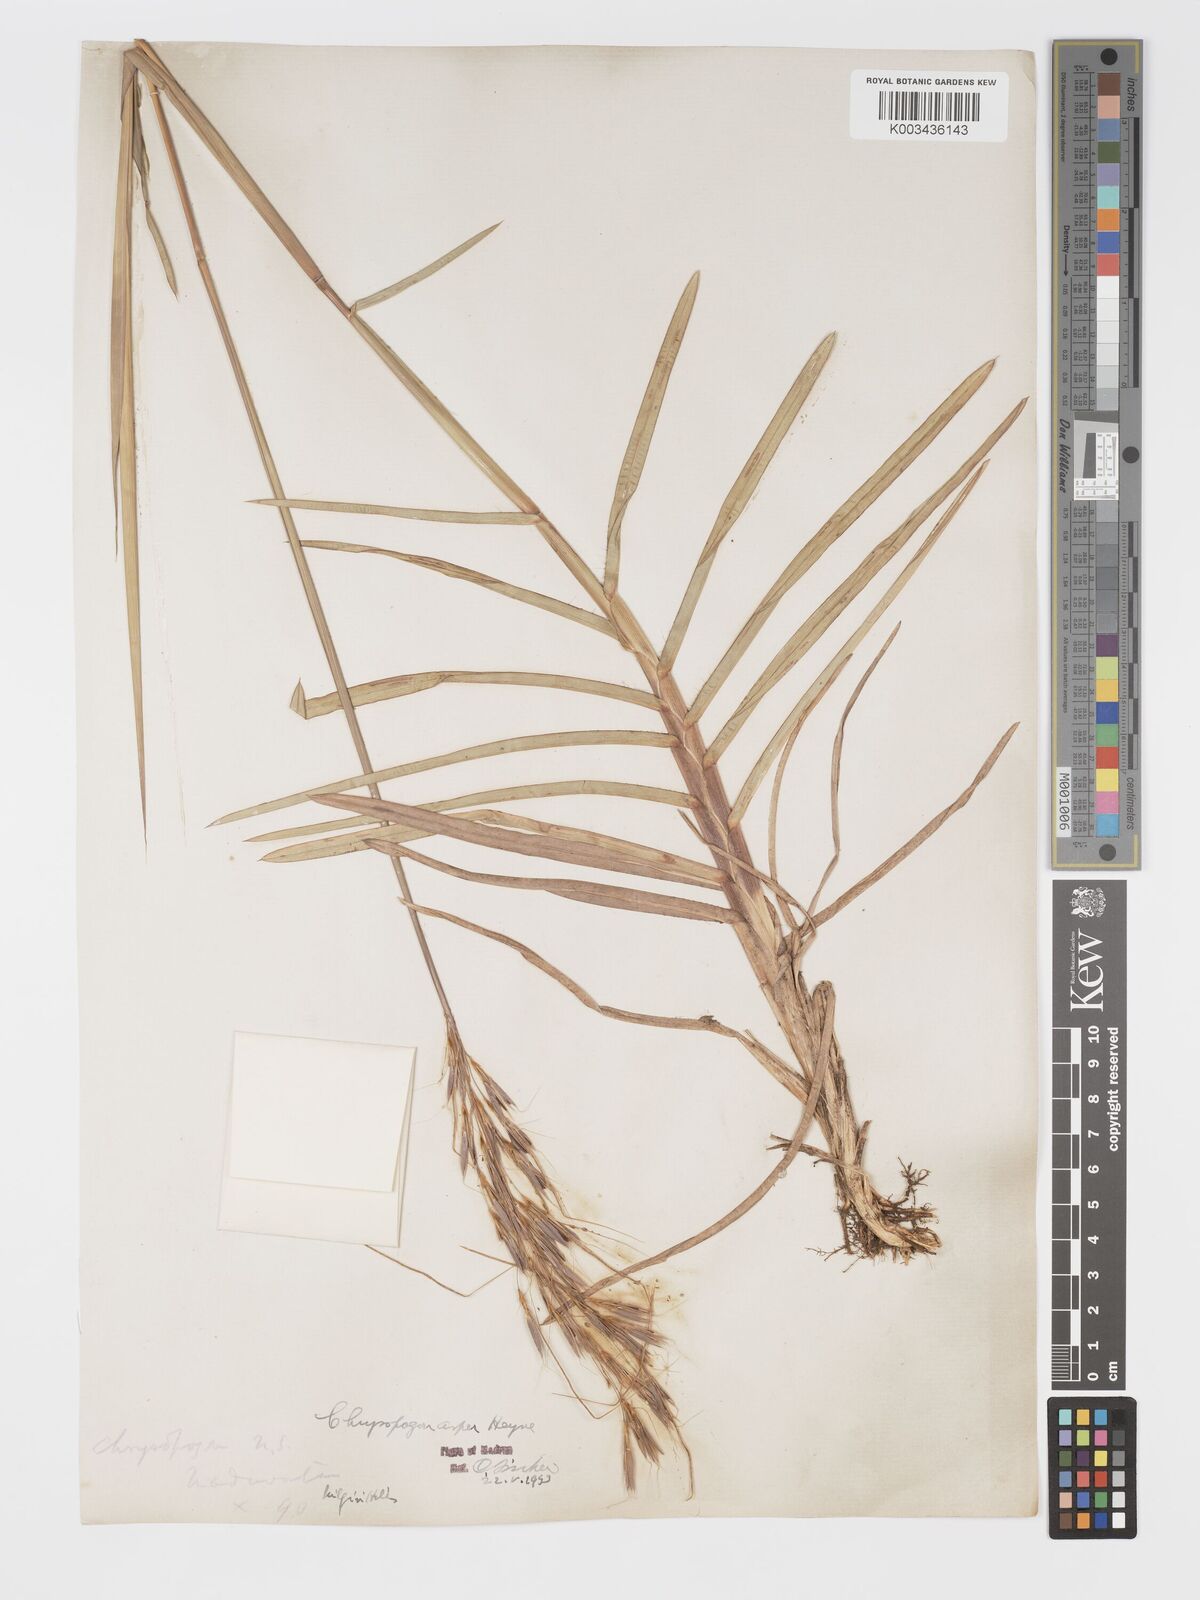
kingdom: Plantae
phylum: Tracheophyta
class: Liliopsida
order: Poales
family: Poaceae
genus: Chrysopogon
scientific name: Chrysopogon asper
